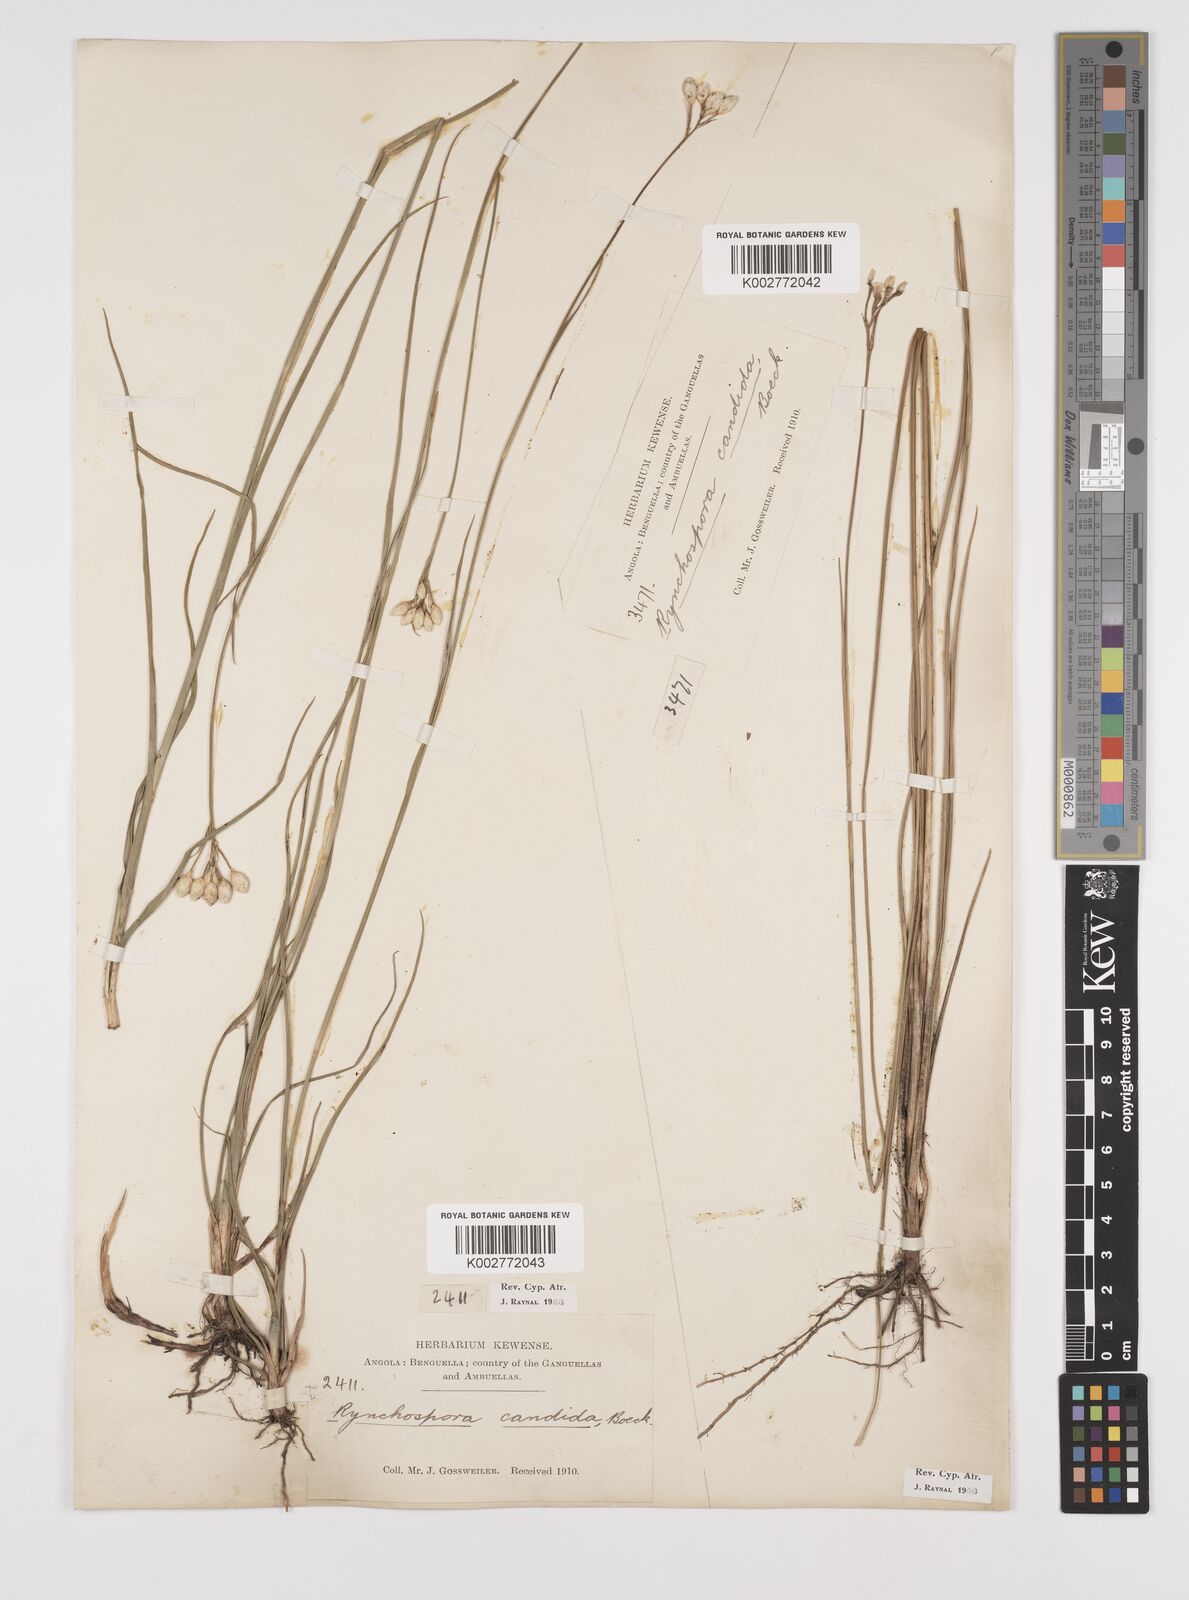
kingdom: Plantae
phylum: Tracheophyta
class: Liliopsida
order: Poales
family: Cyperaceae
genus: Rhynchospora
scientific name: Rhynchospora candida
